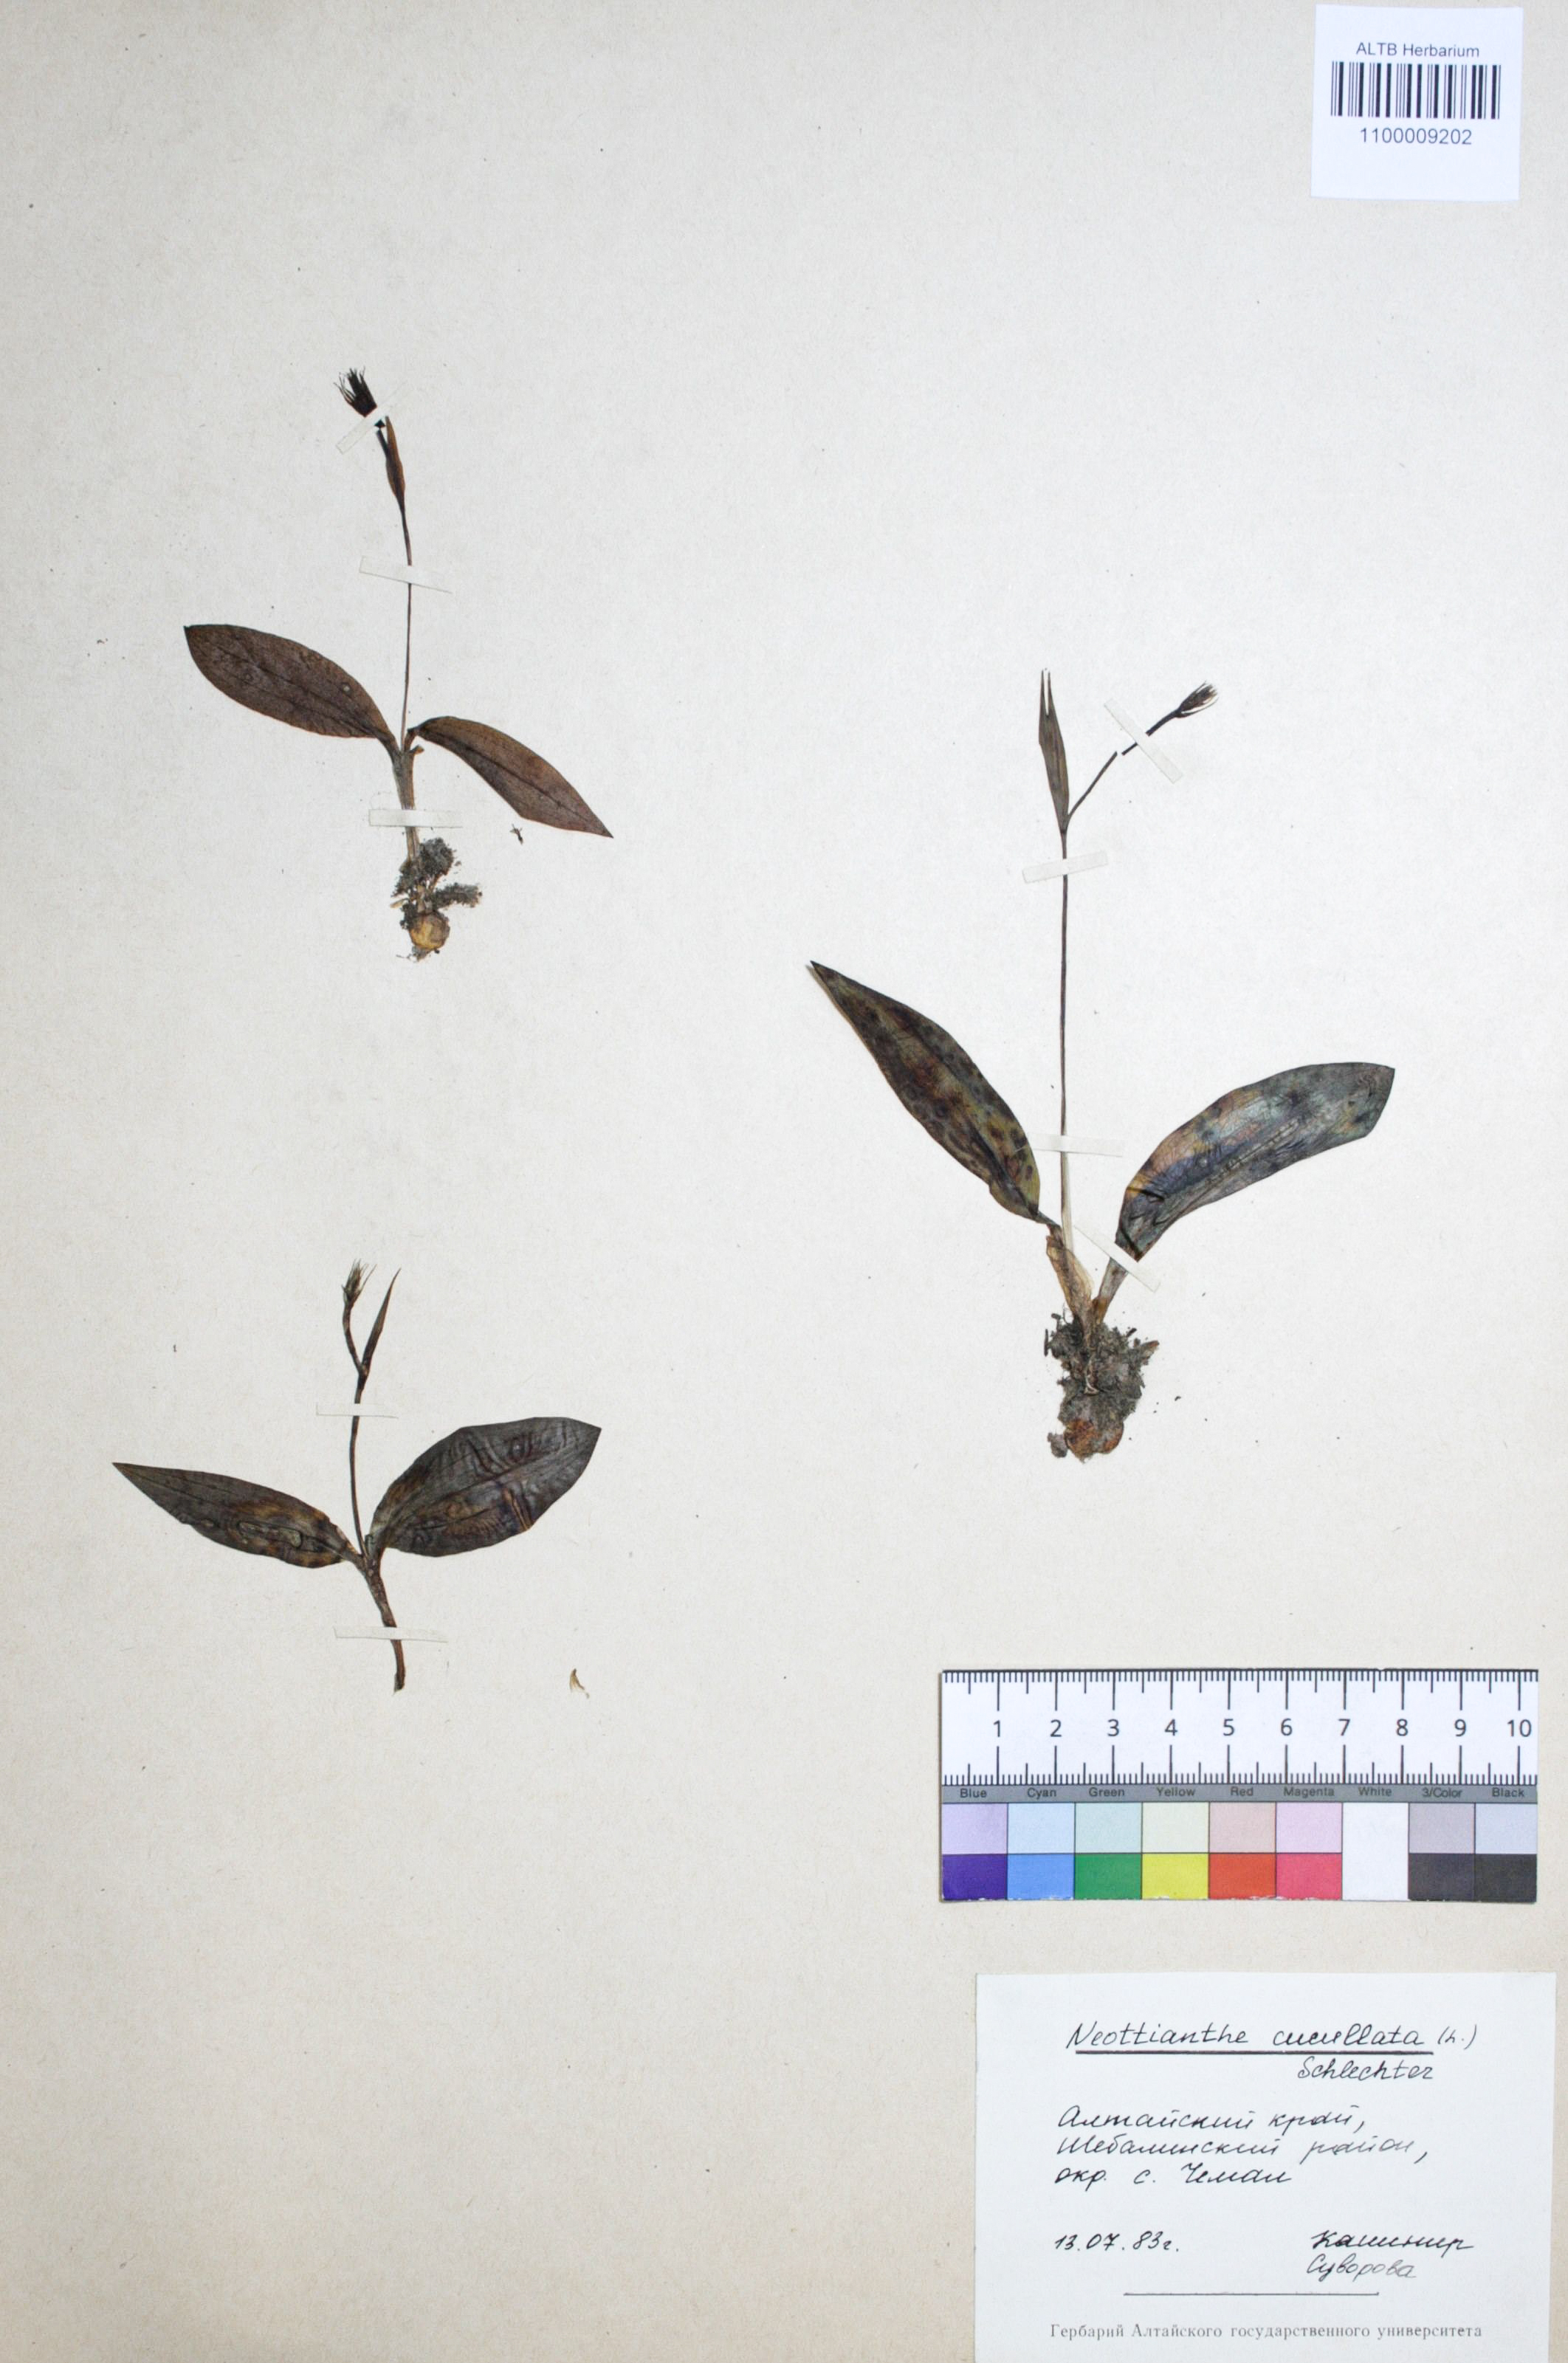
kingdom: Plantae
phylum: Tracheophyta
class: Liliopsida
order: Asparagales
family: Orchidaceae
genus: Hemipilia
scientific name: Hemipilia cucullata
